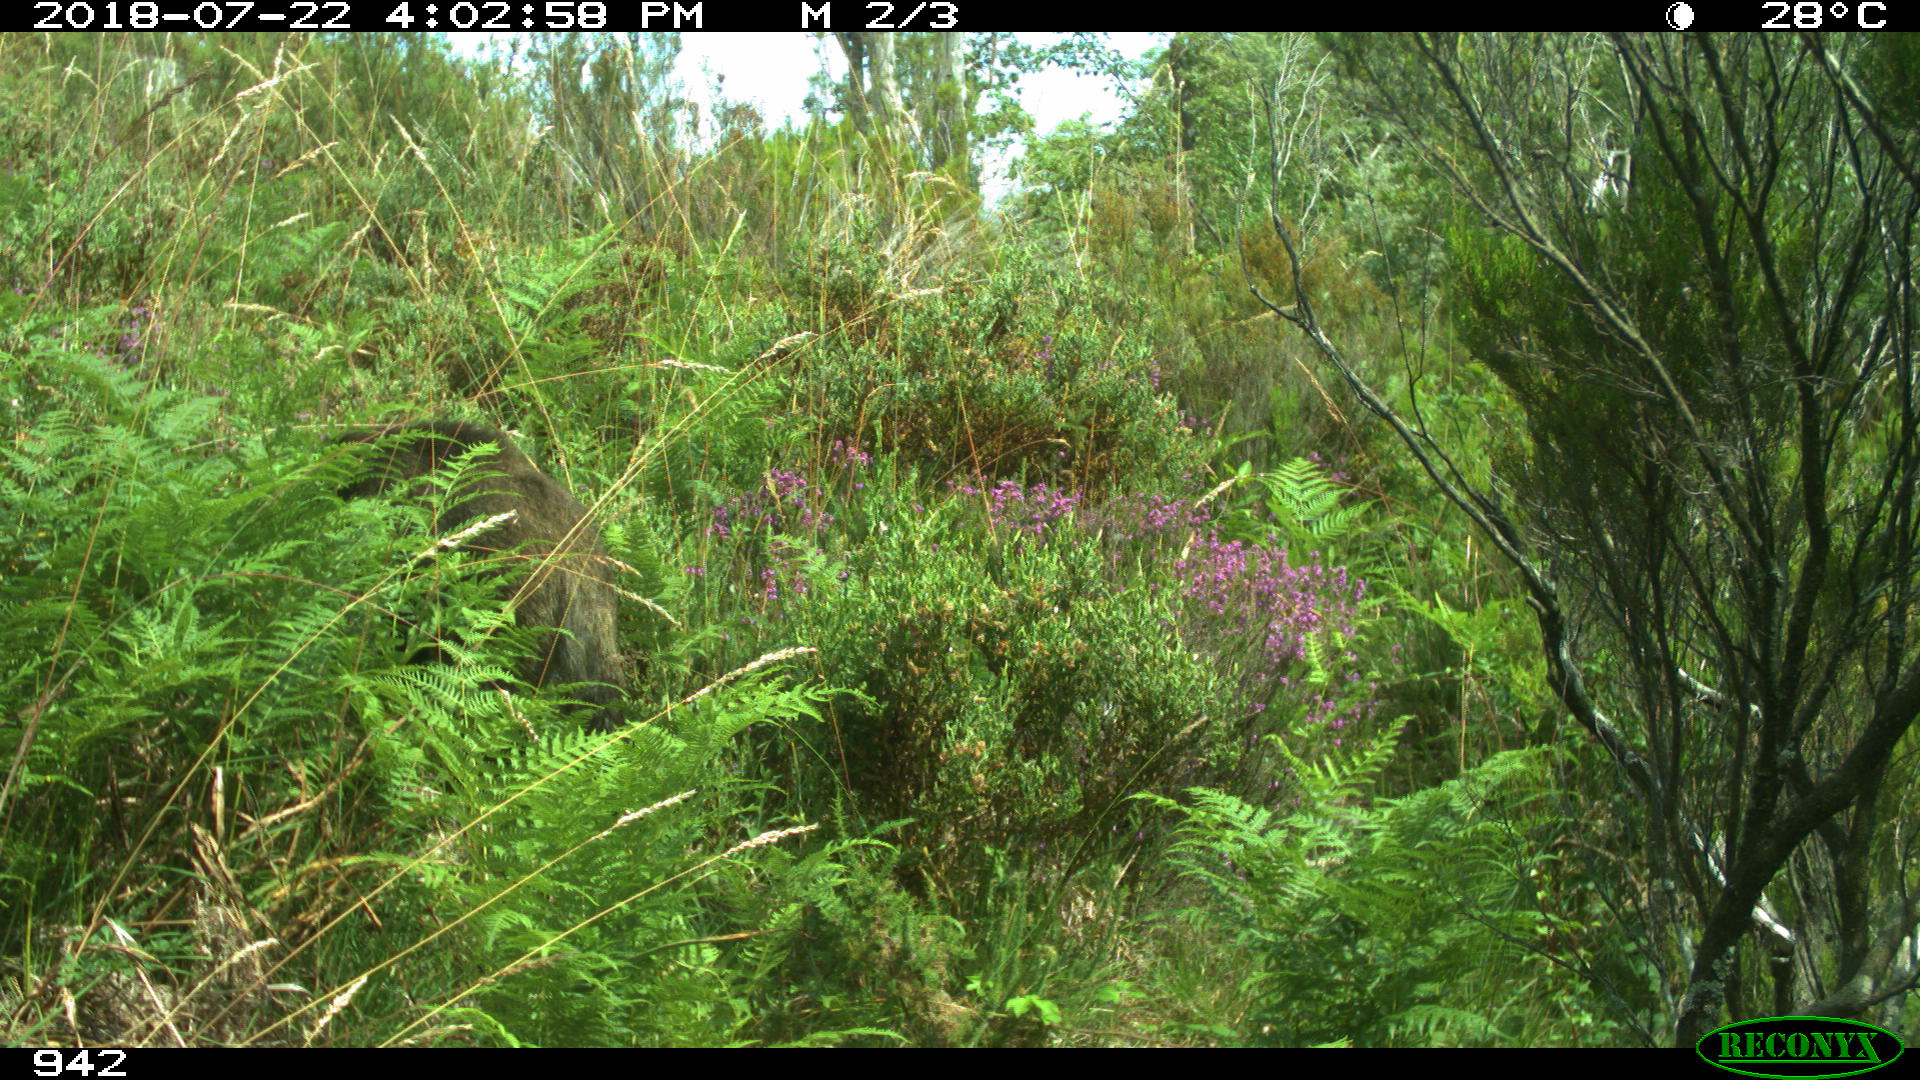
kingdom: Animalia
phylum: Chordata
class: Mammalia
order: Artiodactyla
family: Suidae
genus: Sus
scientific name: Sus scrofa
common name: Wild boar
